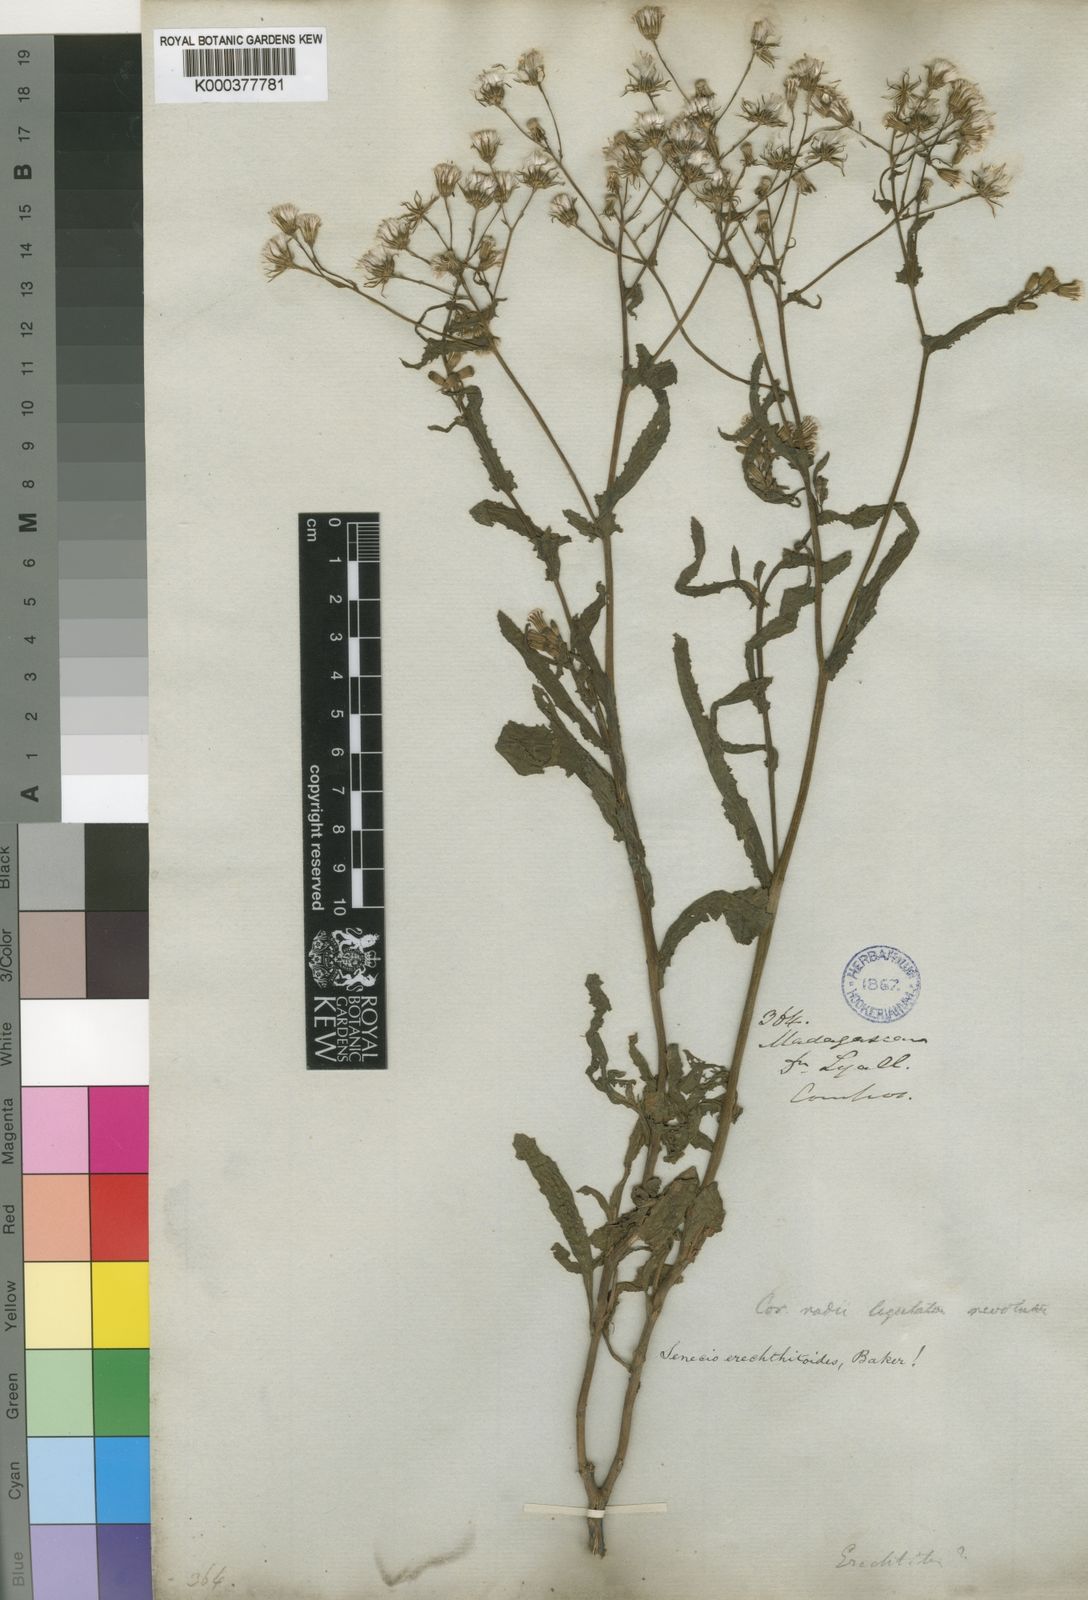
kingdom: Plantae
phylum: Tracheophyta
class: Magnoliopsida
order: Asterales
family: Asteraceae
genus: Senecio
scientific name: Senecio garnieri
